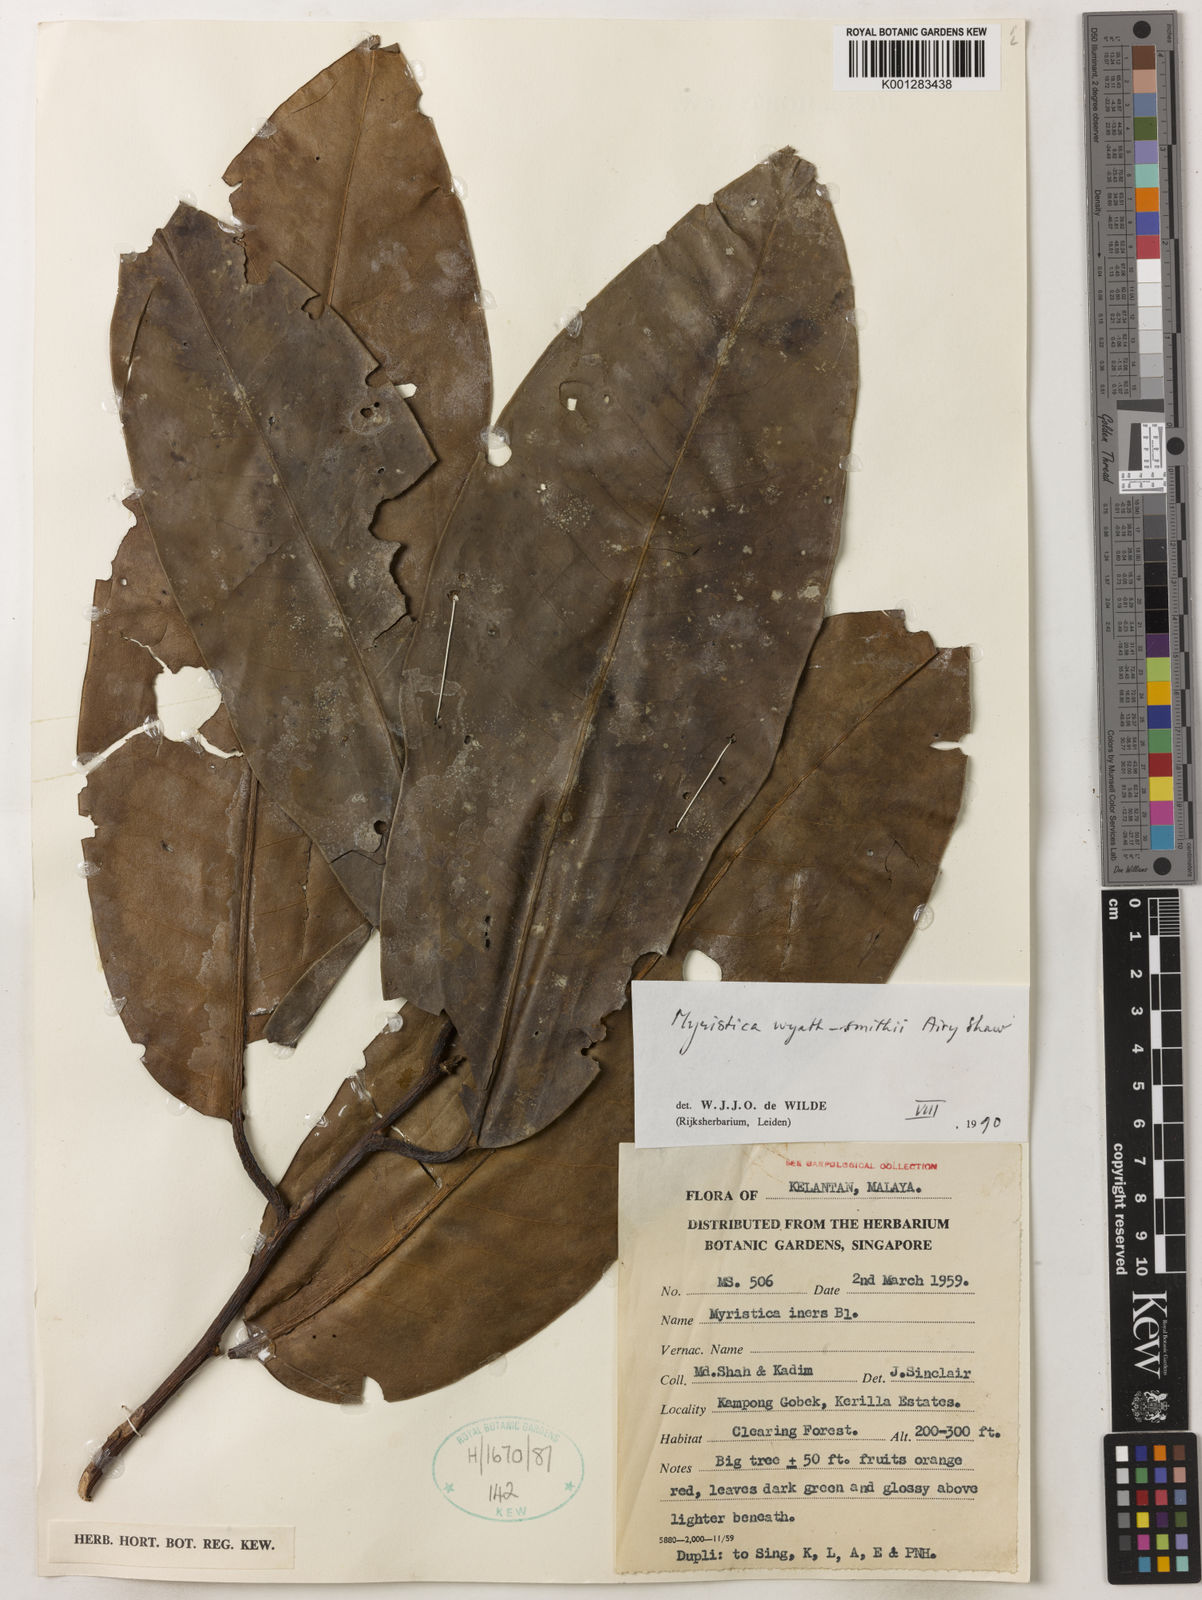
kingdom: Plantae
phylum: Tracheophyta
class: Magnoliopsida
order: Magnoliales
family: Myristicaceae
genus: Myristica
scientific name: Myristica wyatt-smithii
